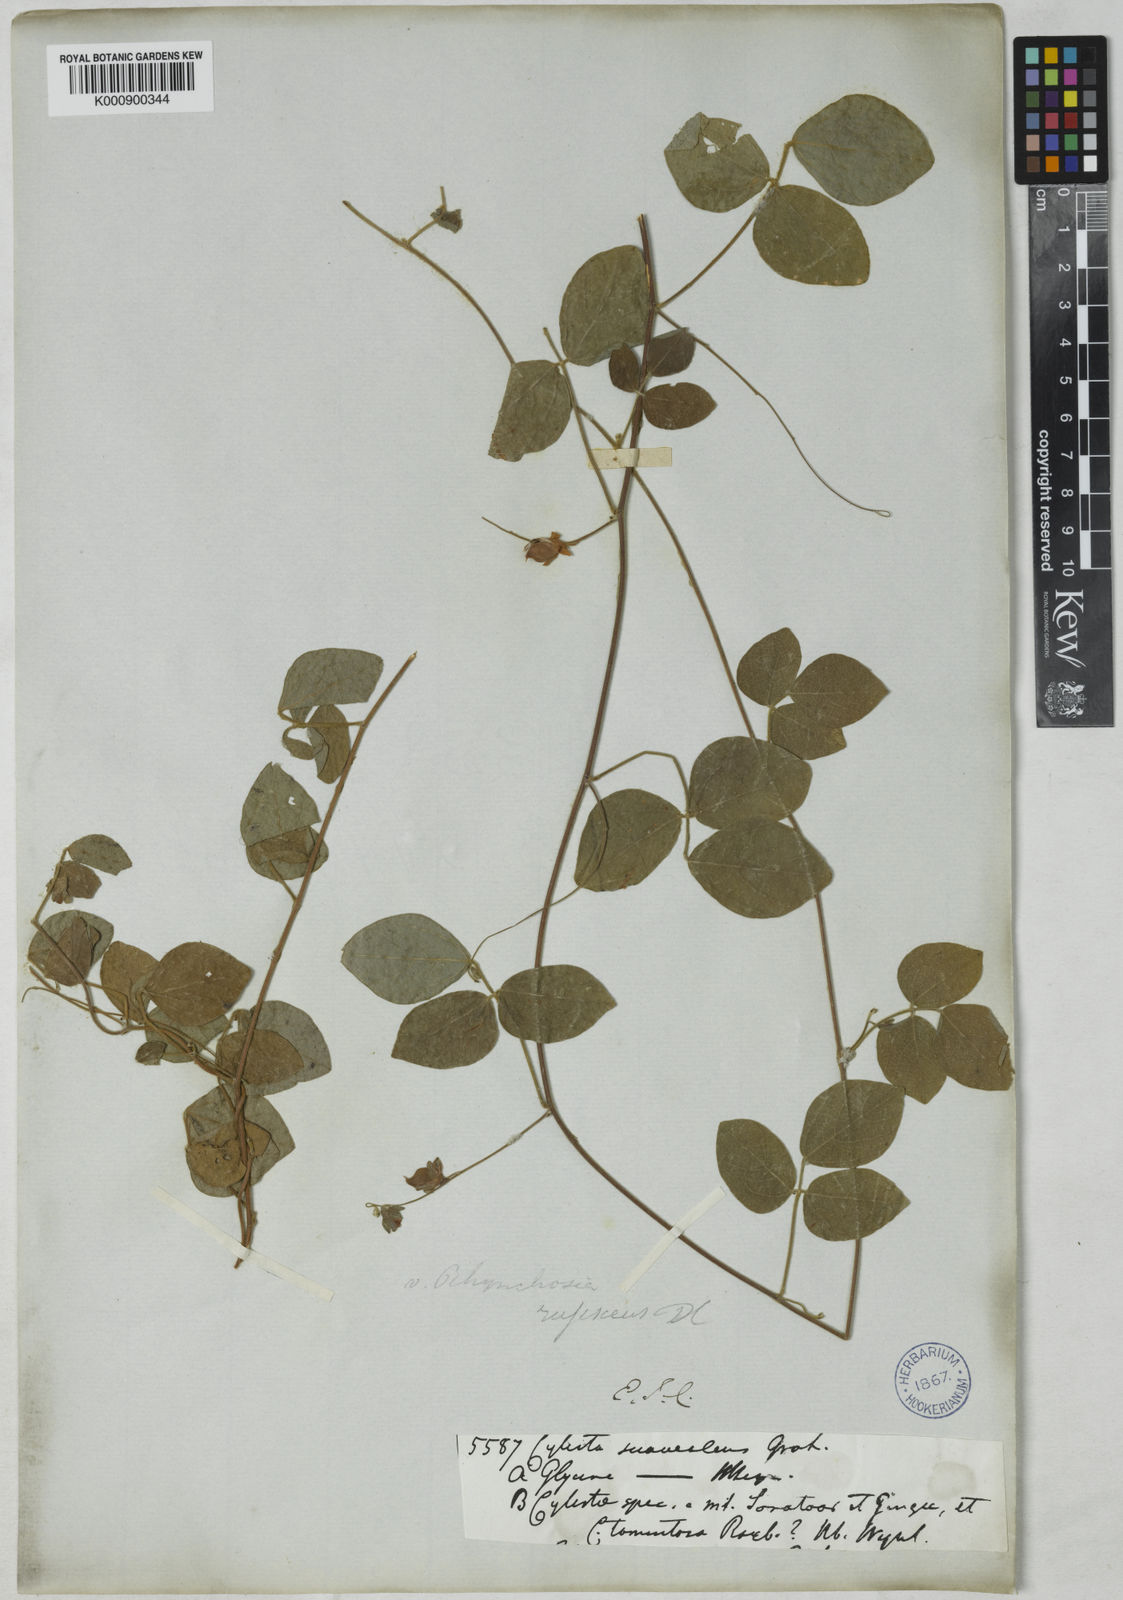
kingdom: Plantae
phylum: Tracheophyta
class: Magnoliopsida
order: Fabales
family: Fabaceae
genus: Paracalyx
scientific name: Paracalyx scariosus
